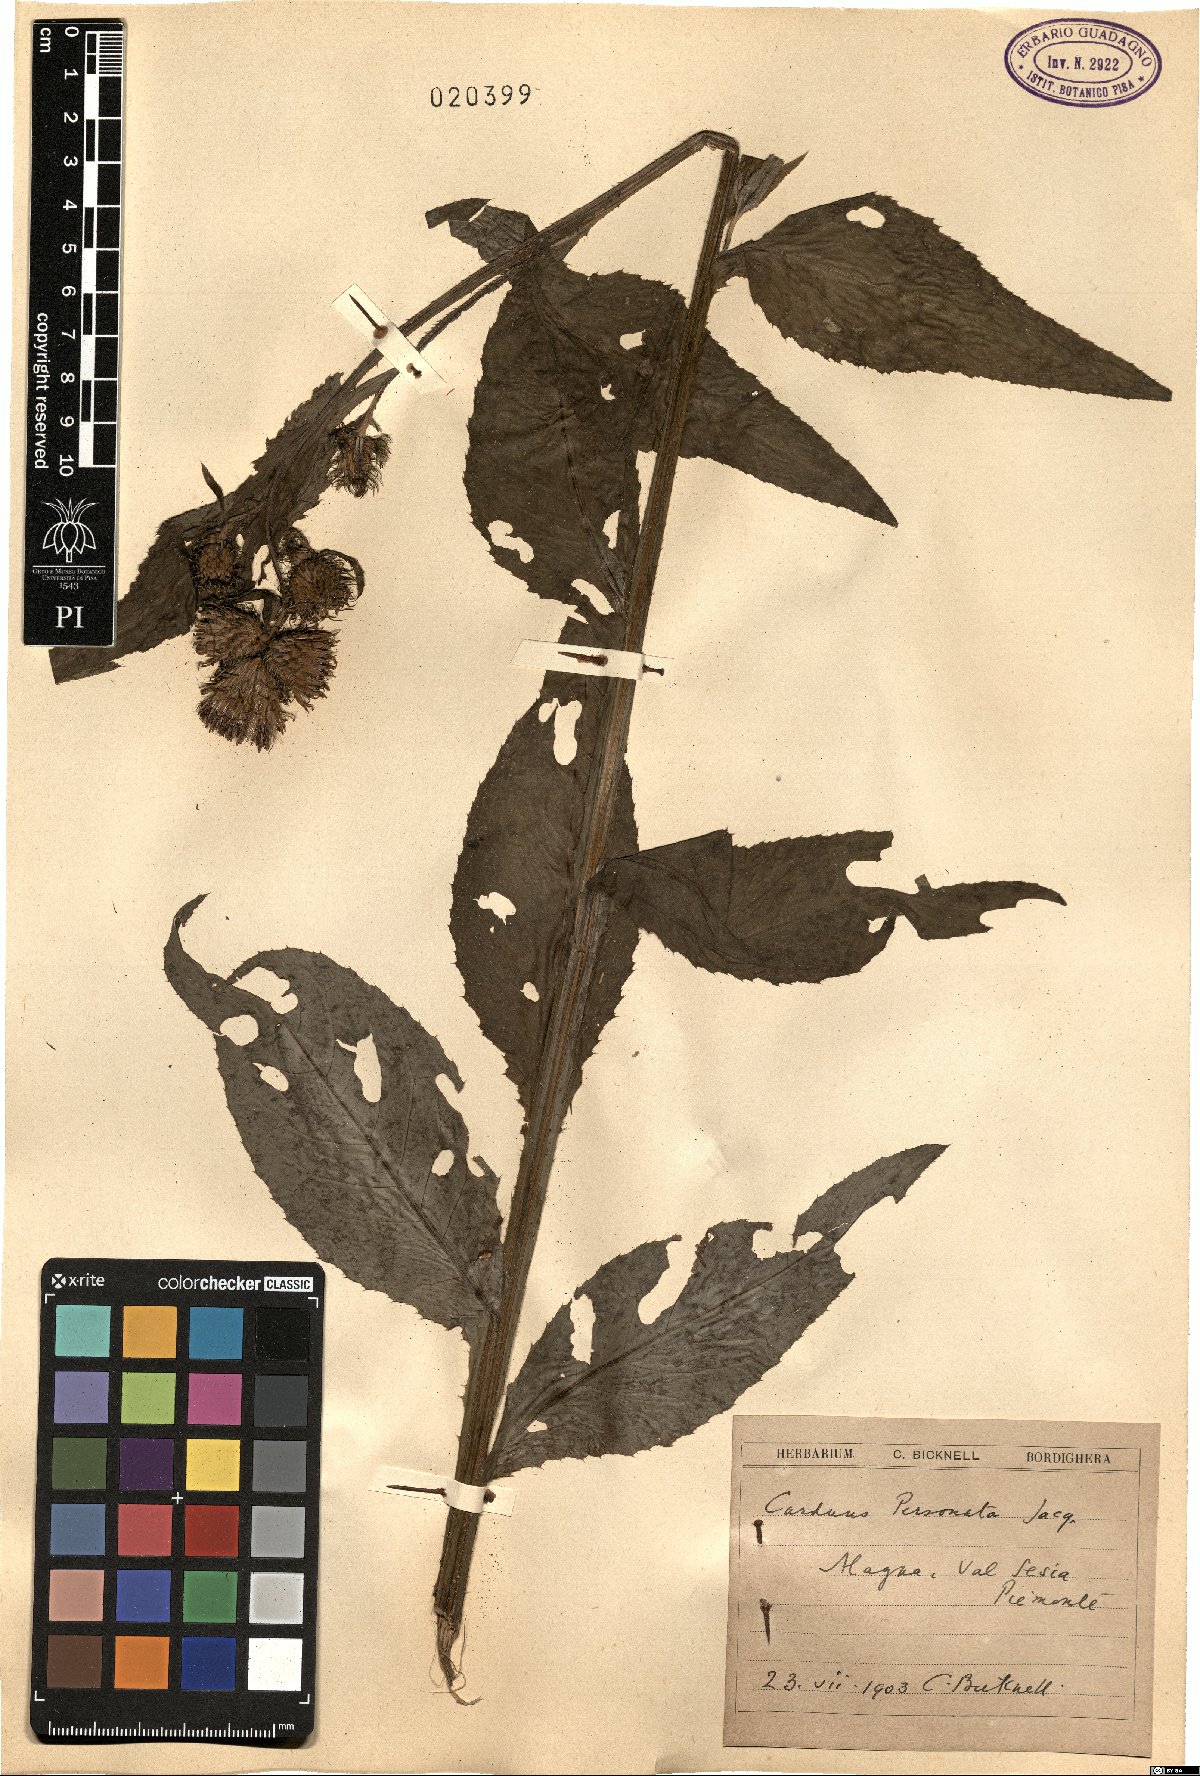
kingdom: Plantae
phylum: Tracheophyta
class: Magnoliopsida
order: Asterales
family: Asteraceae
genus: Carduus
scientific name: Carduus personata
